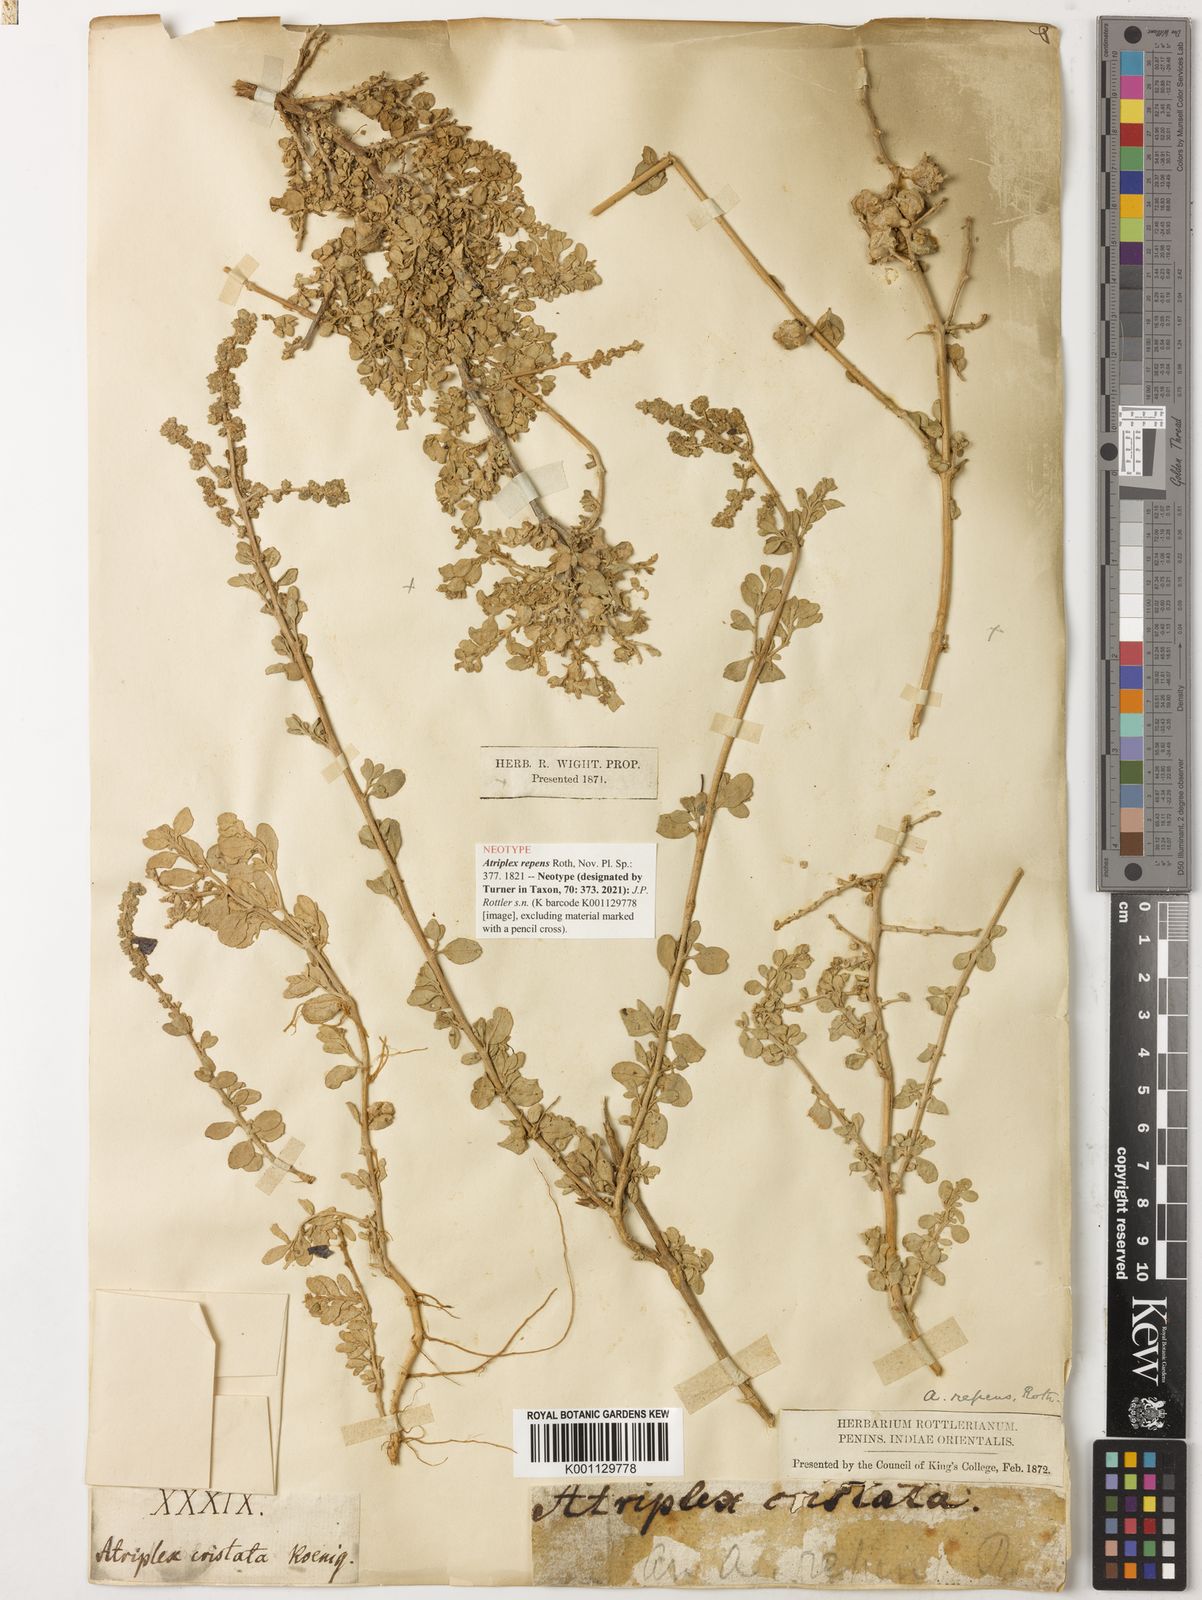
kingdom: Plantae
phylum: Tracheophyta
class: Magnoliopsida
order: Caryophyllales
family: Amaranthaceae
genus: Atriplex
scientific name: Atriplex repens
